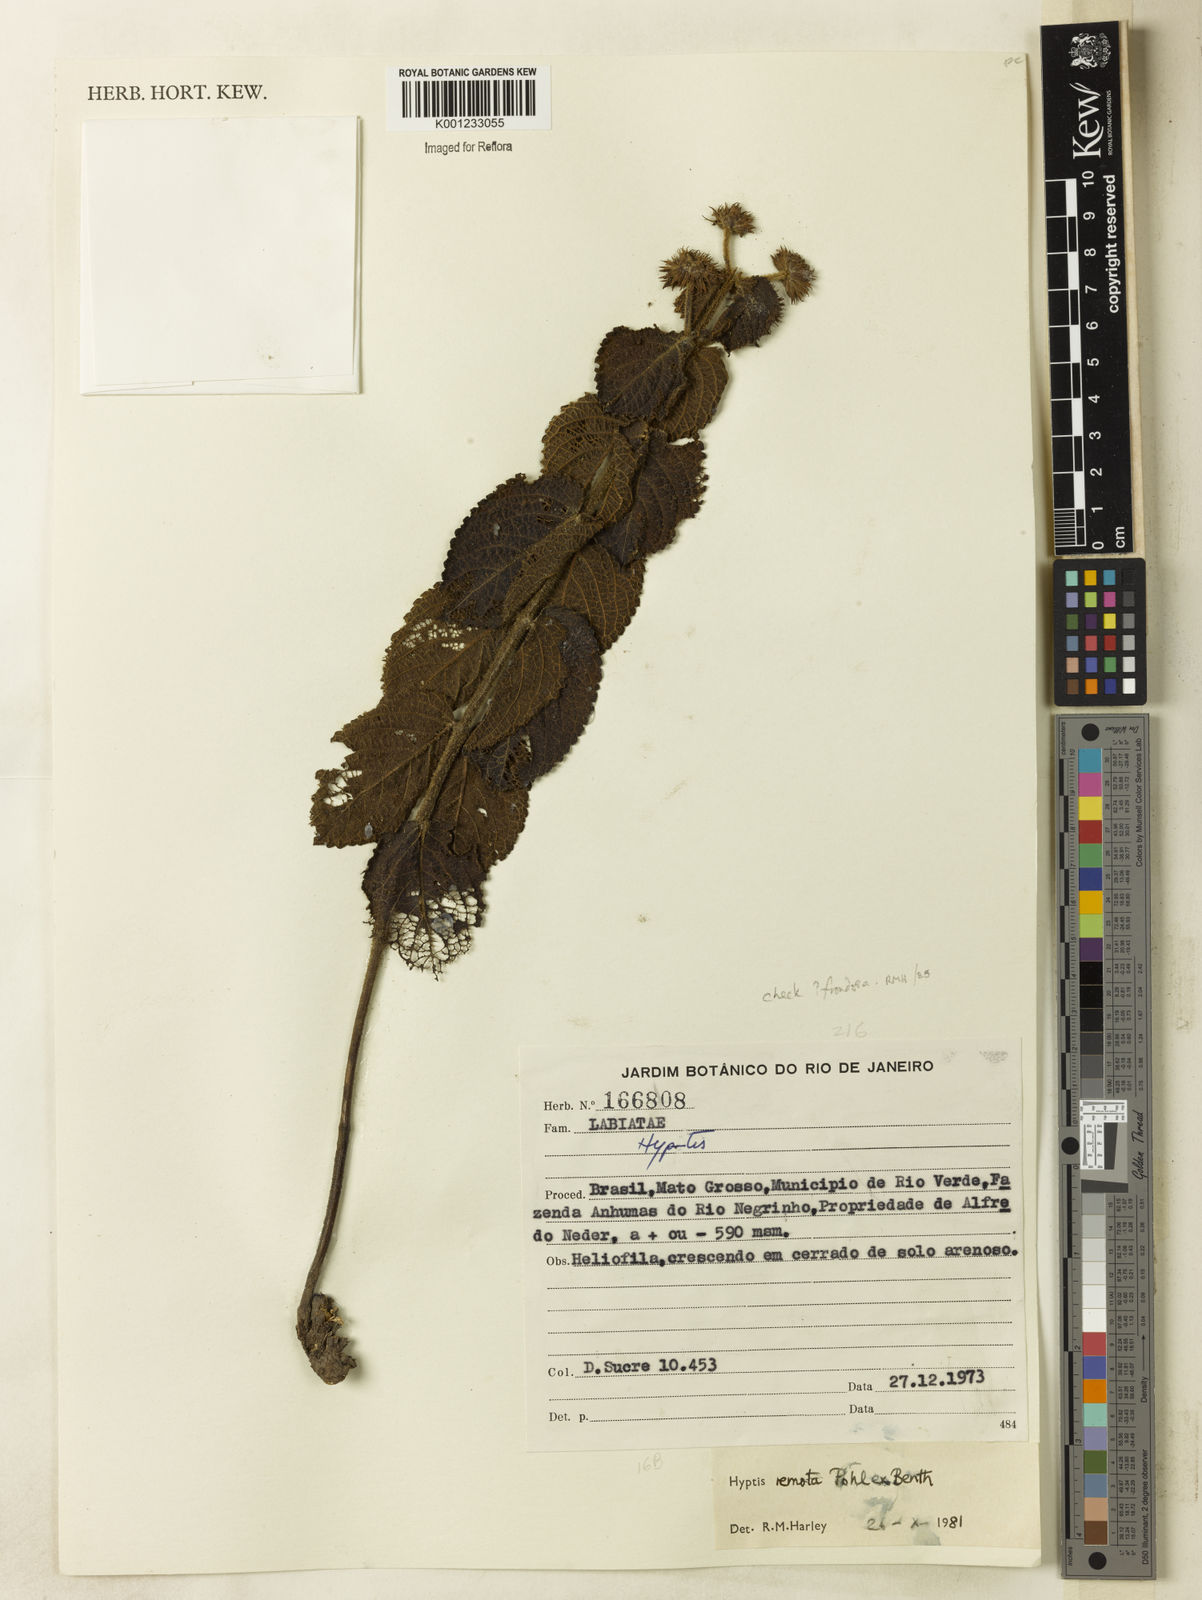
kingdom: Plantae
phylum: Tracheophyta
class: Magnoliopsida
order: Lamiales
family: Lamiaceae
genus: Hyptis
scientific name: Hyptis remota
